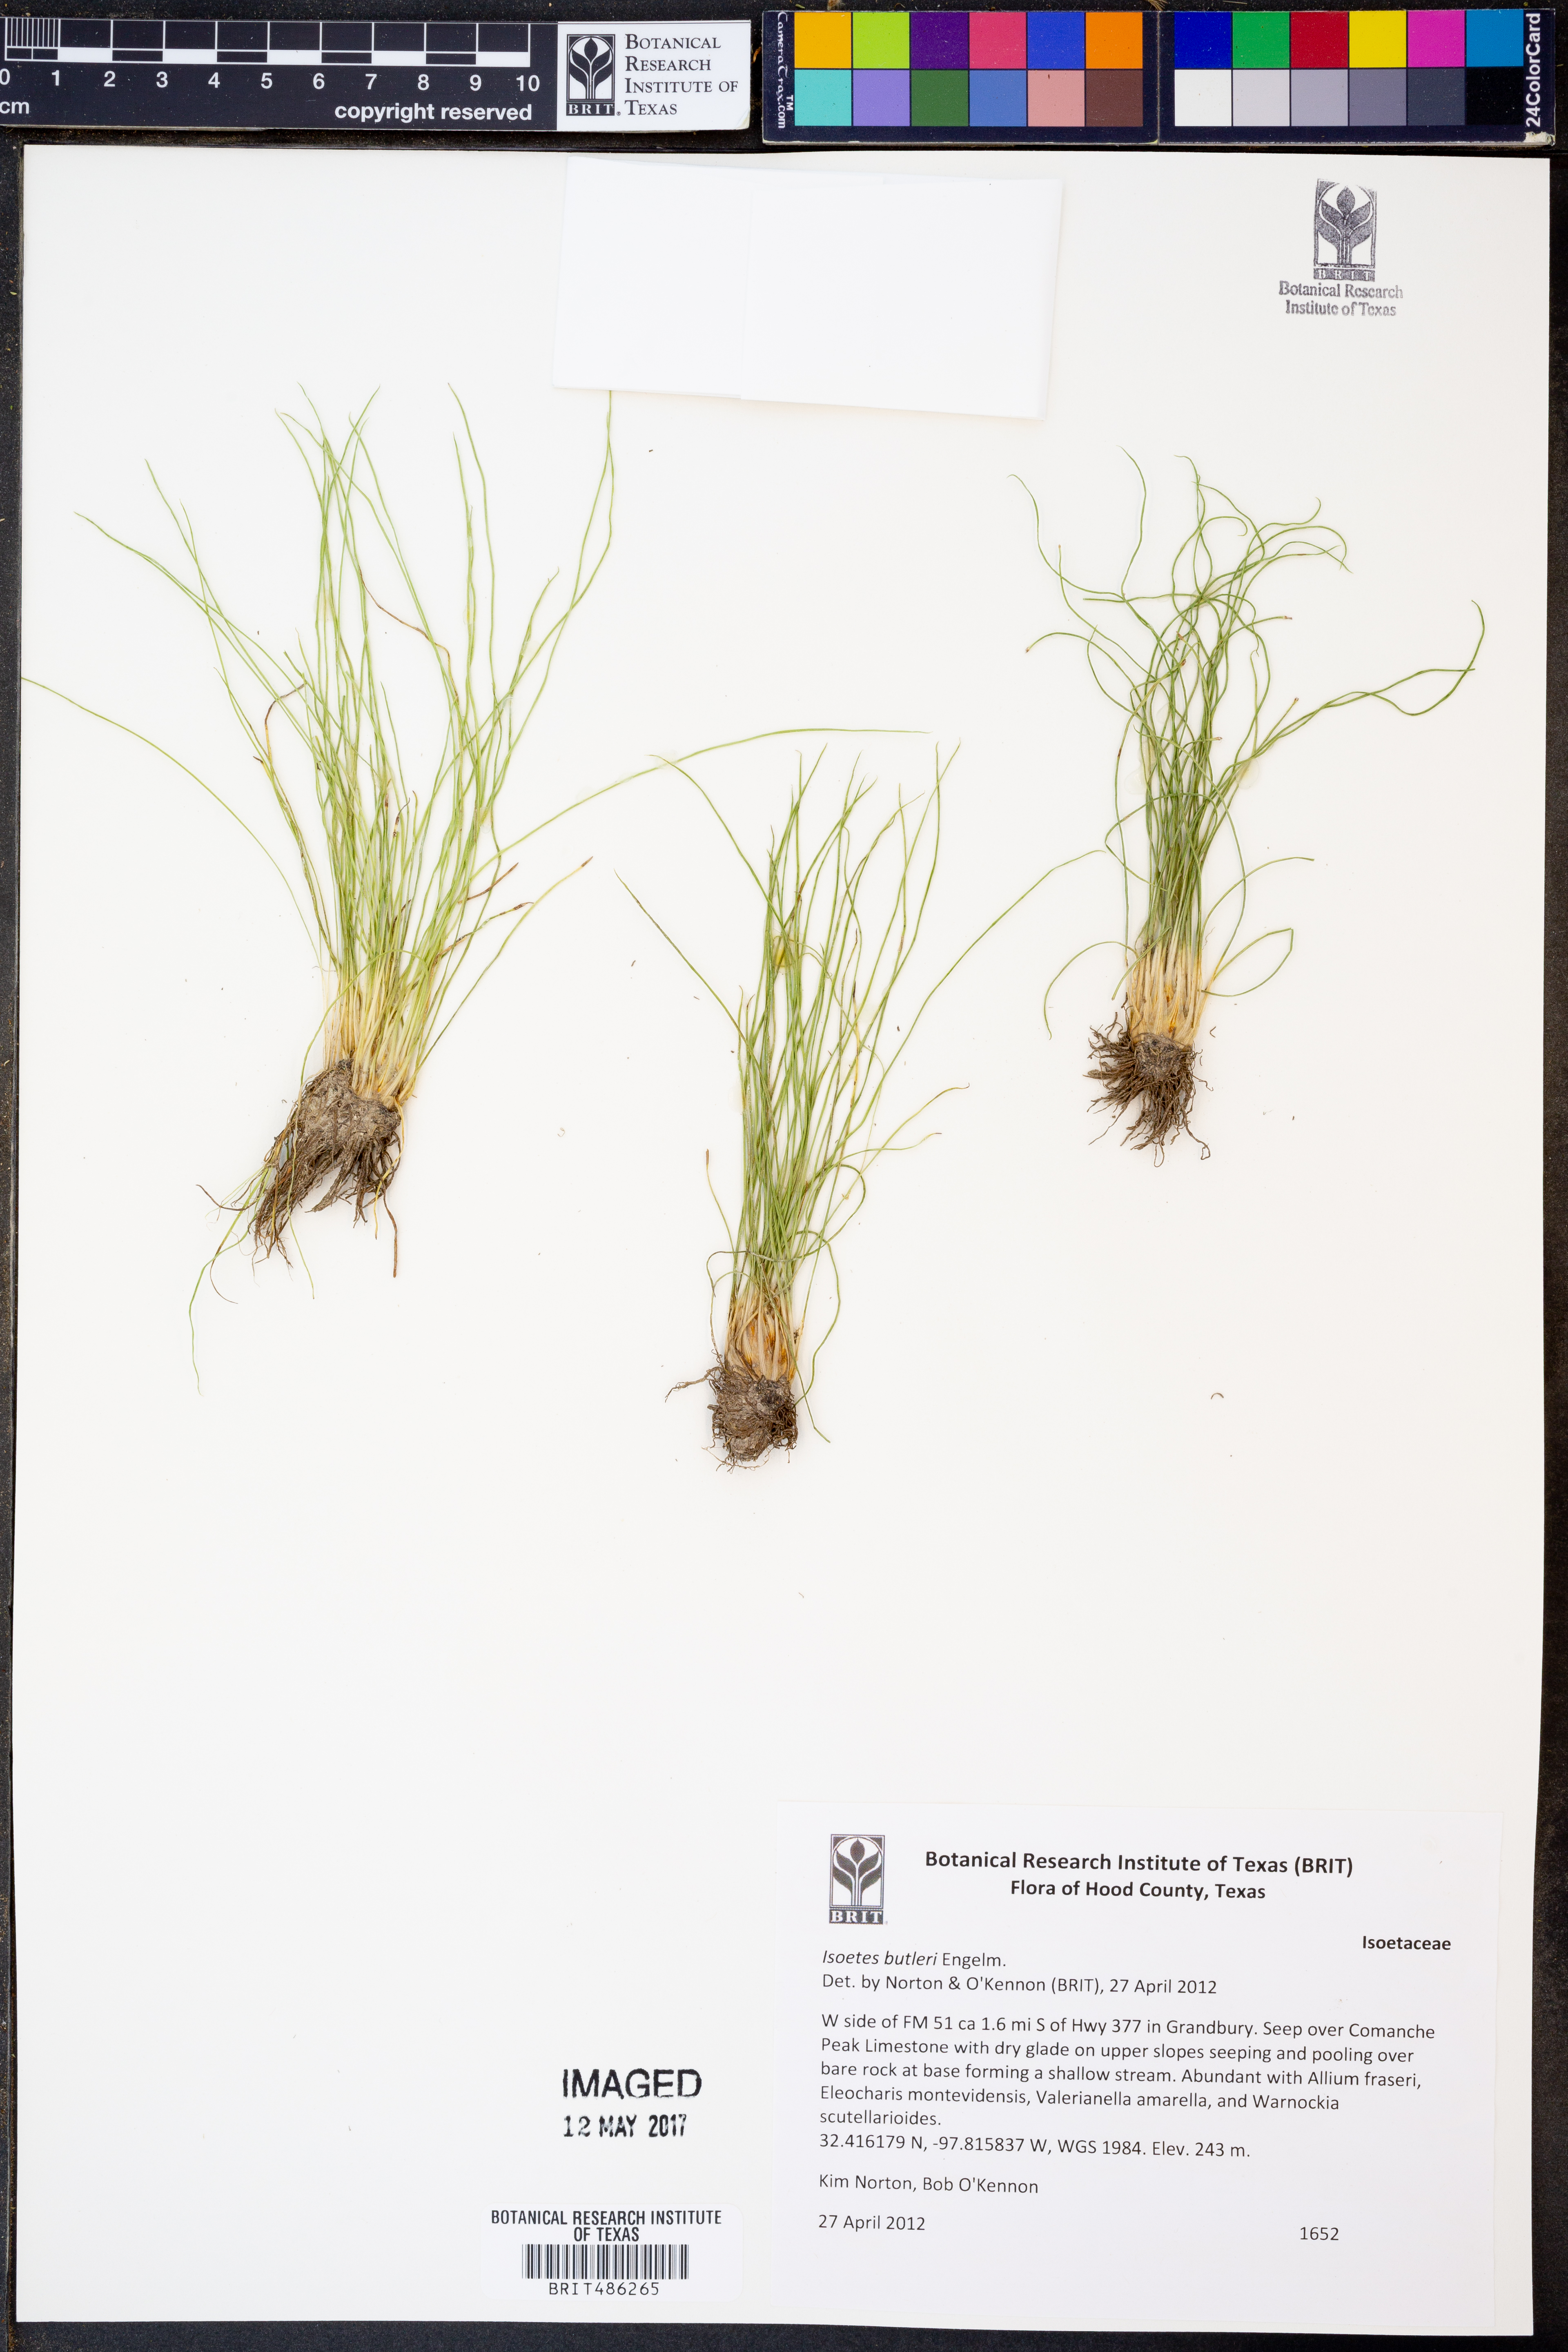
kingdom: Plantae
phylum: Tracheophyta
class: Lycopodiopsida
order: Isoetales
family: Isoetaceae
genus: Isoetes
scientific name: Isoetes butleri
